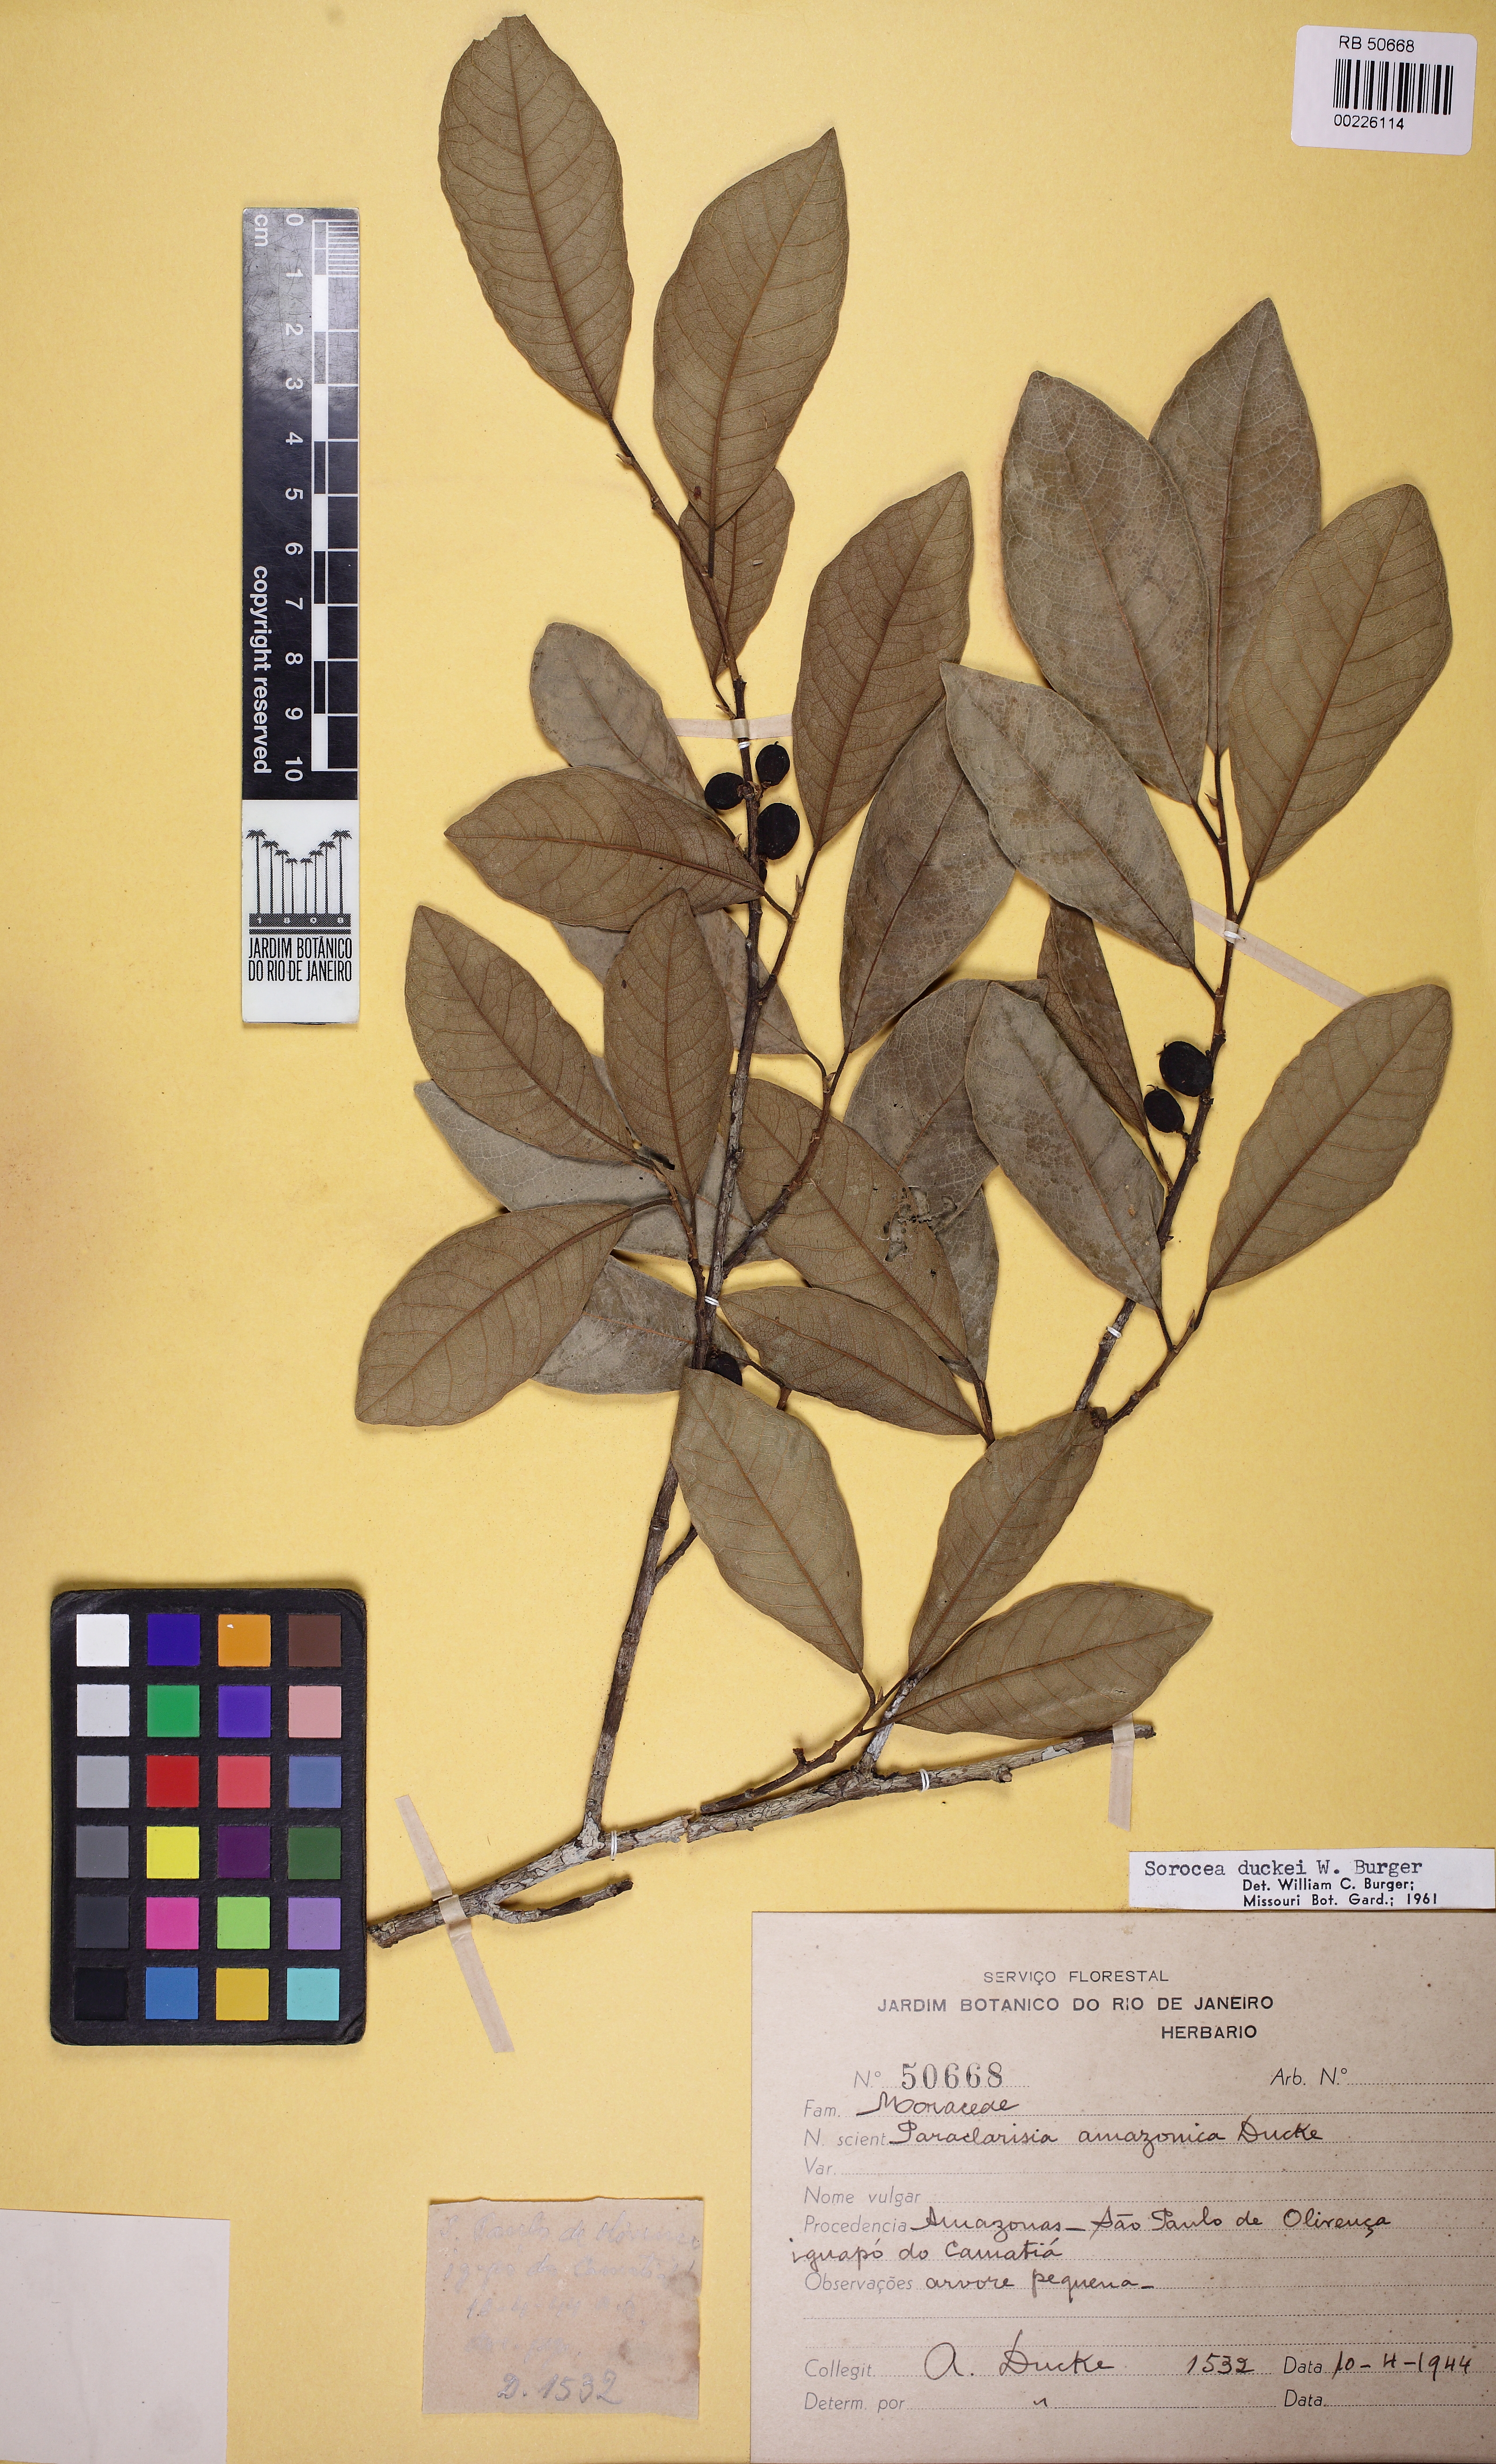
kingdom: Plantae
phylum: Tracheophyta
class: Magnoliopsida
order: Rosales
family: Moraceae
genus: Sorocea
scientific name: Sorocea duckei
